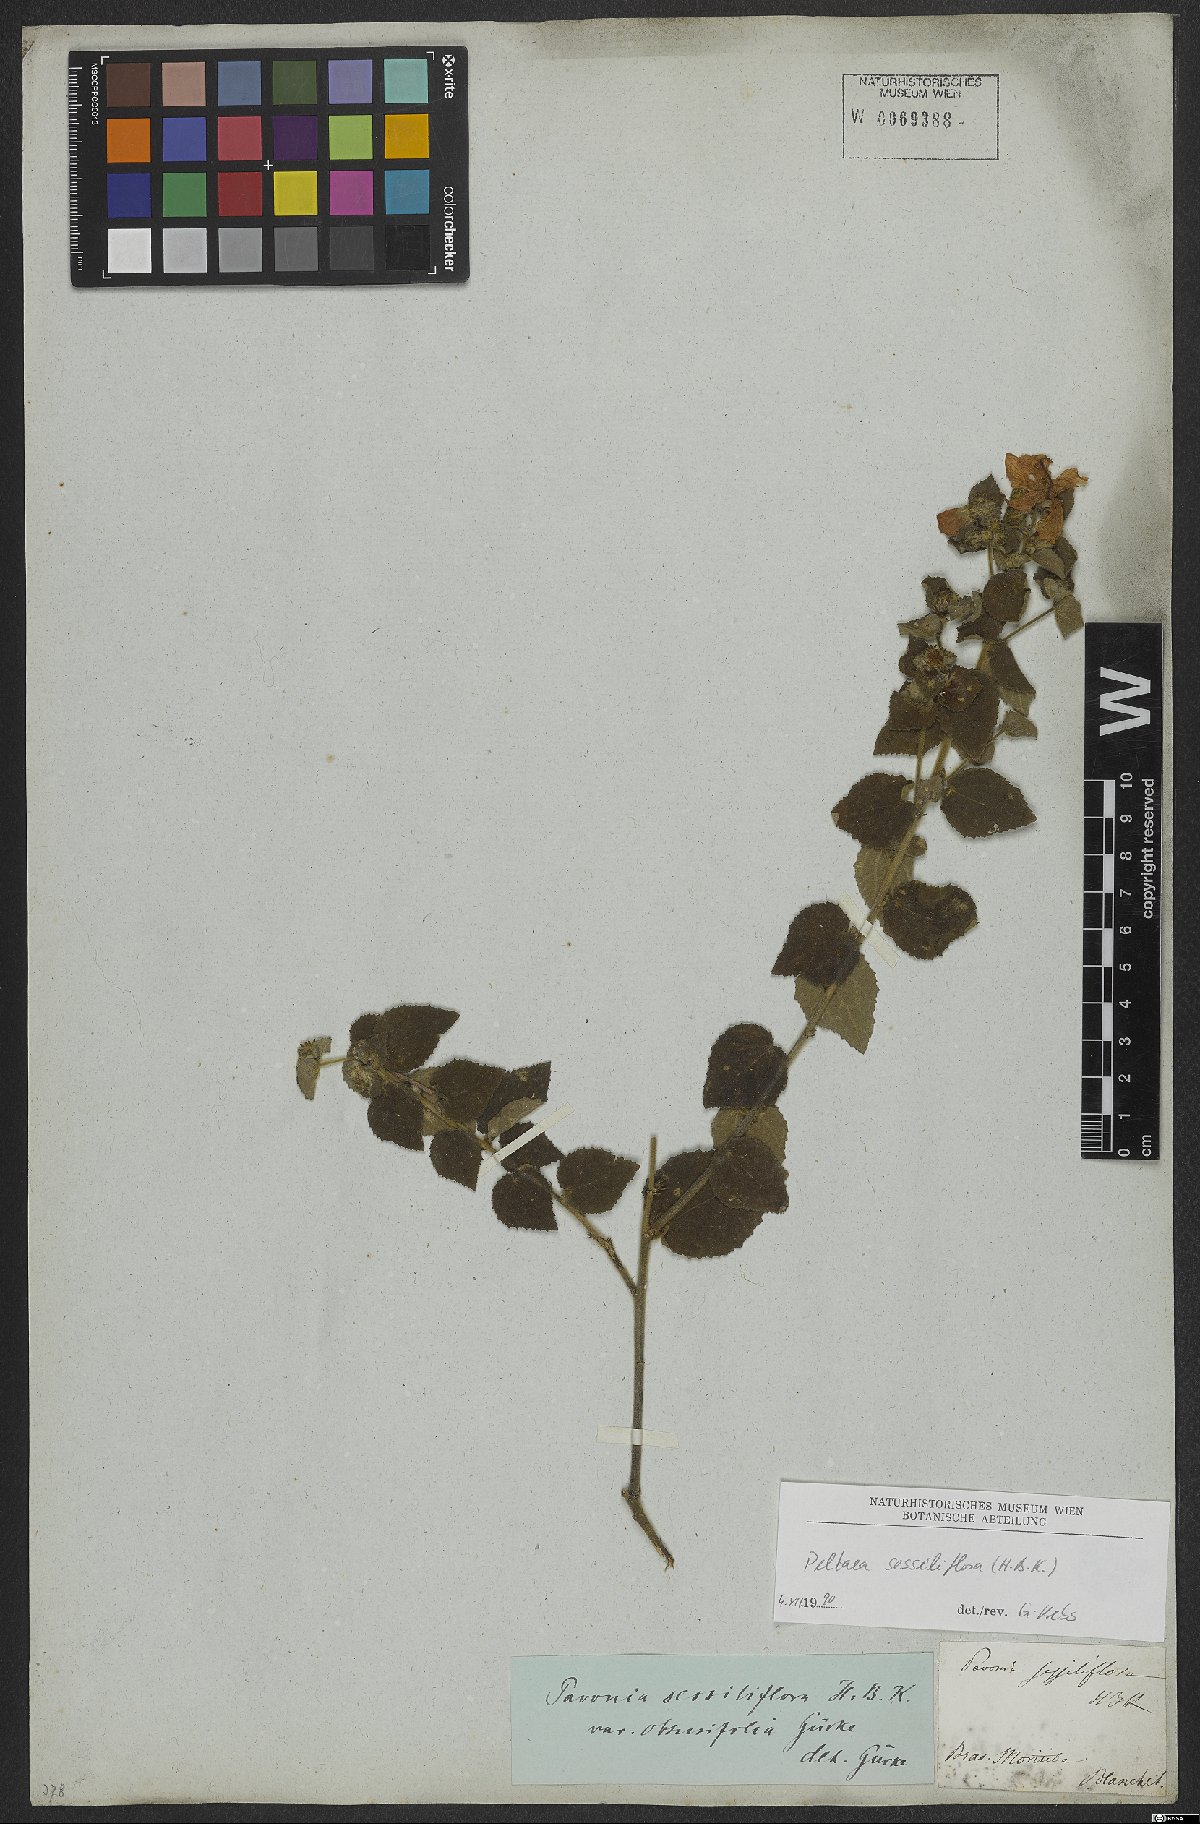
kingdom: Plantae
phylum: Tracheophyta
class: Magnoliopsida
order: Malvales
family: Malvaceae
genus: Peltaea
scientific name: Peltaea sessiliflora
